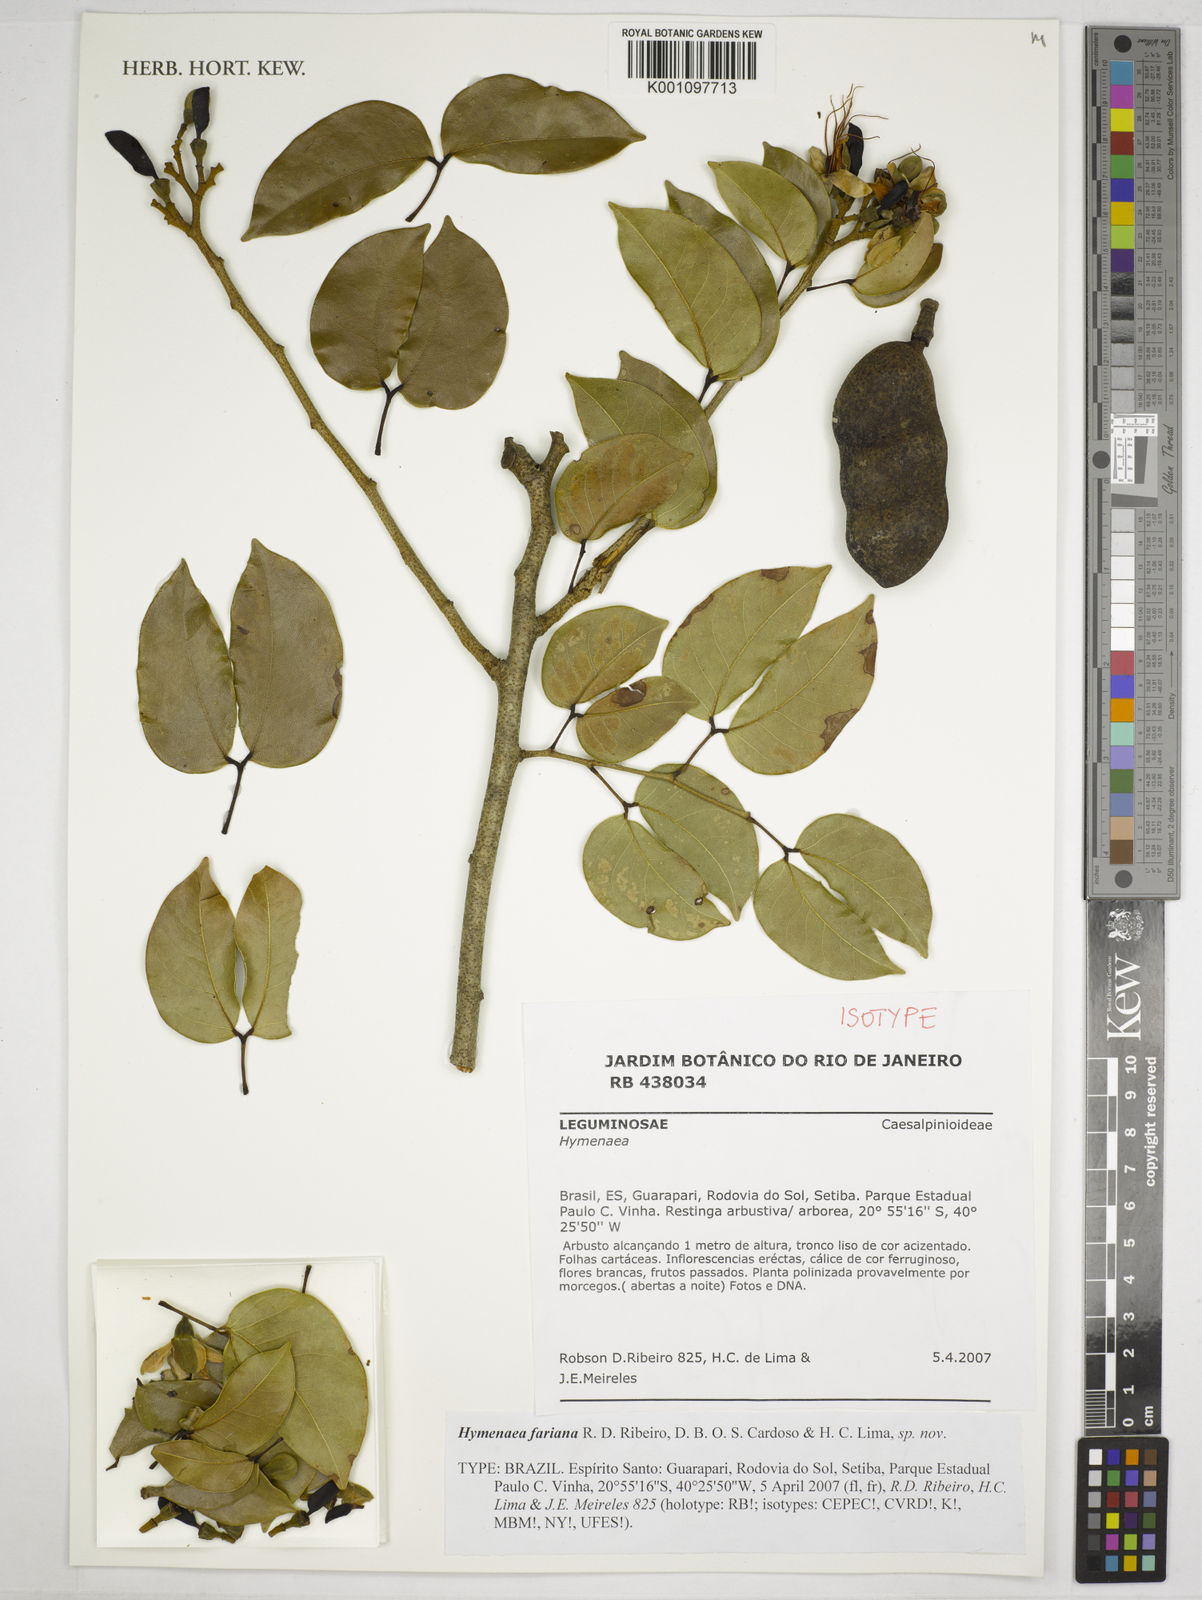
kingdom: Plantae
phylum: Tracheophyta
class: Magnoliopsida
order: Fabales
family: Fabaceae
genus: Hymenaea
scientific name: Hymenaea fariana
